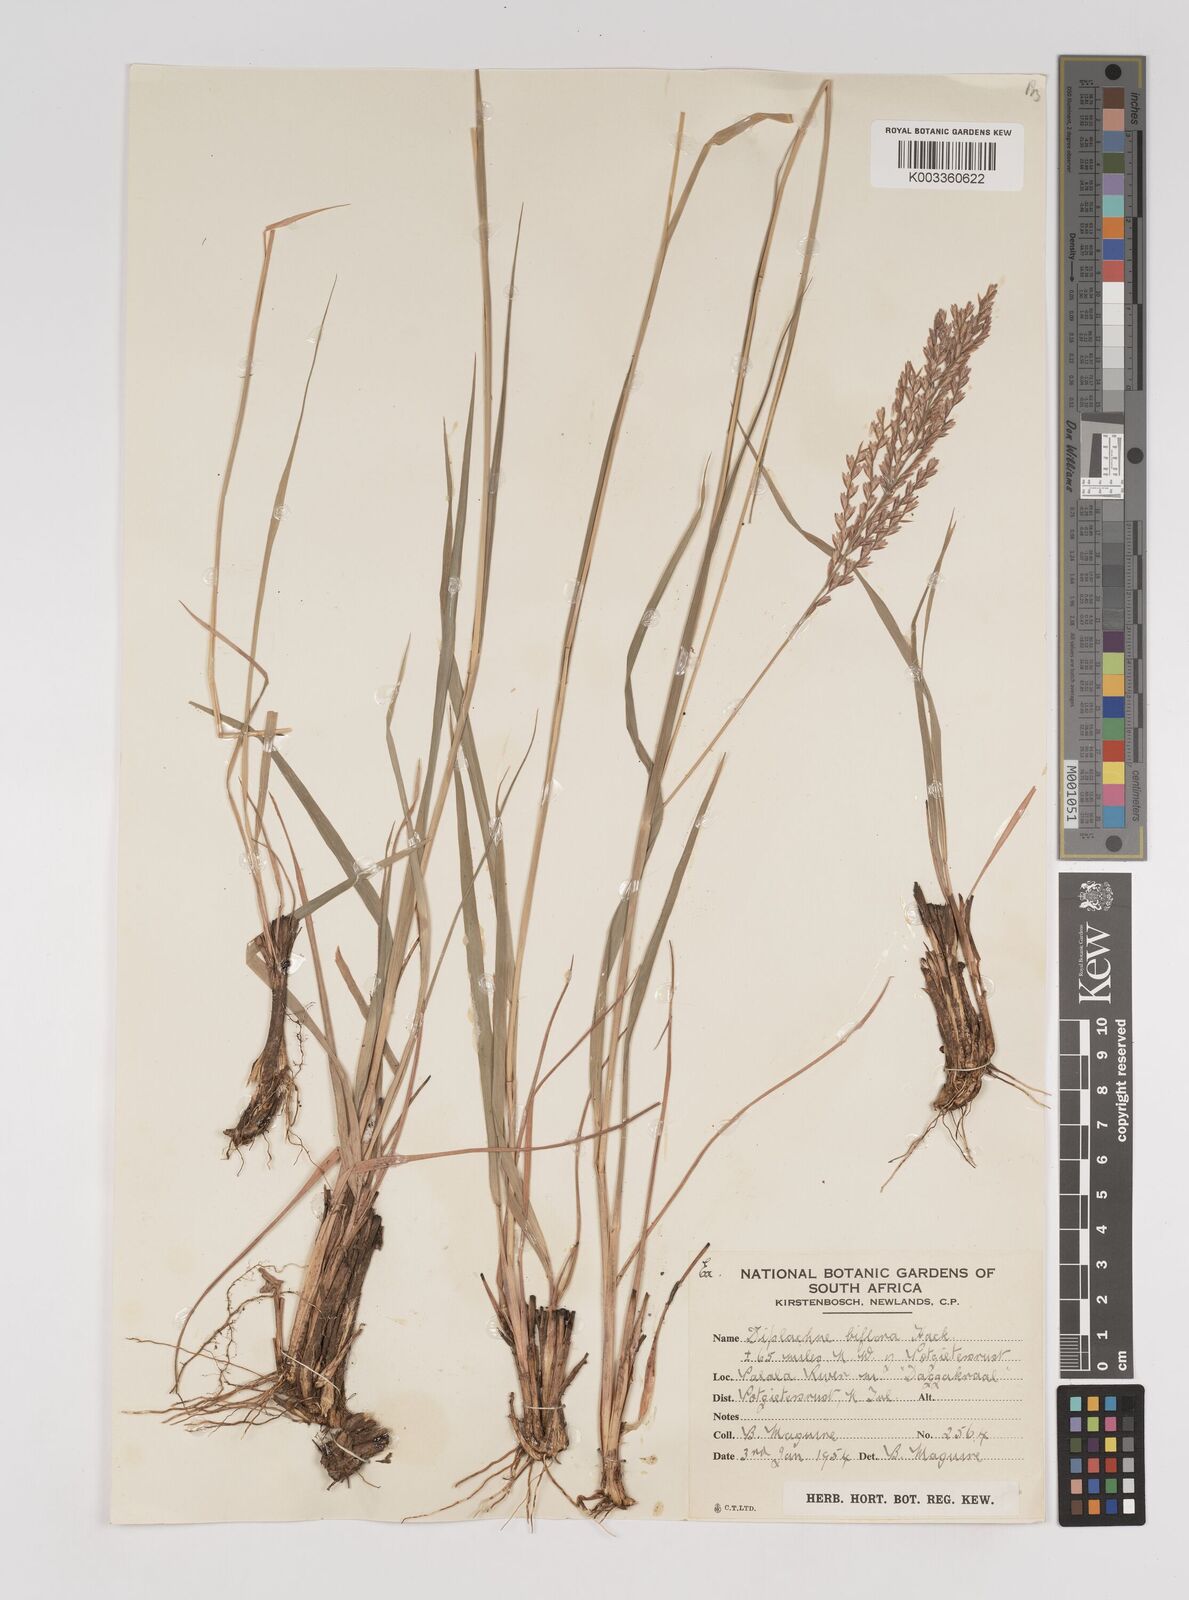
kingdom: Plantae
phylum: Tracheophyta
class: Liliopsida
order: Poales
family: Poaceae
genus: Bewsia
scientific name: Bewsia biflora
